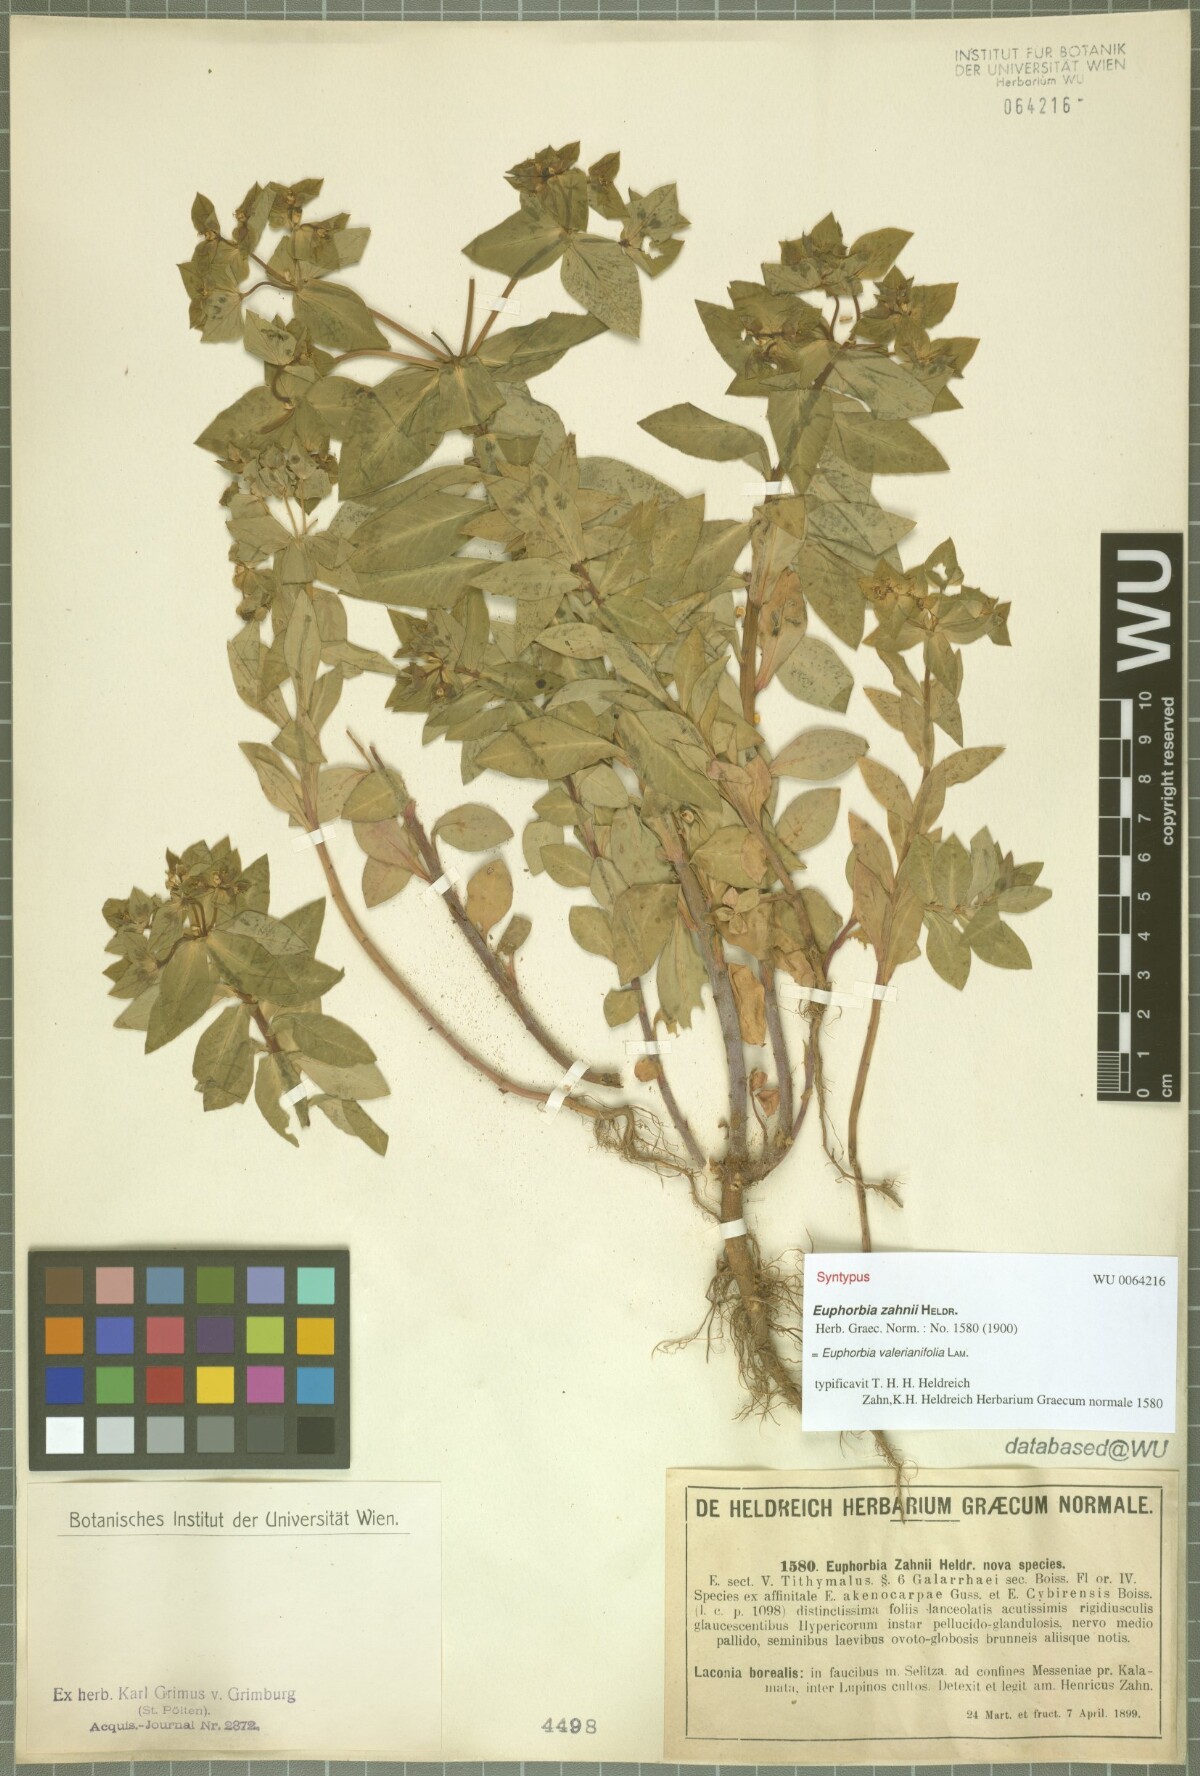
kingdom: Plantae
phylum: Tracheophyta
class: Magnoliopsida
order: Malpighiales
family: Euphorbiaceae
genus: Euphorbia
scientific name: Euphorbia valerianifolia
